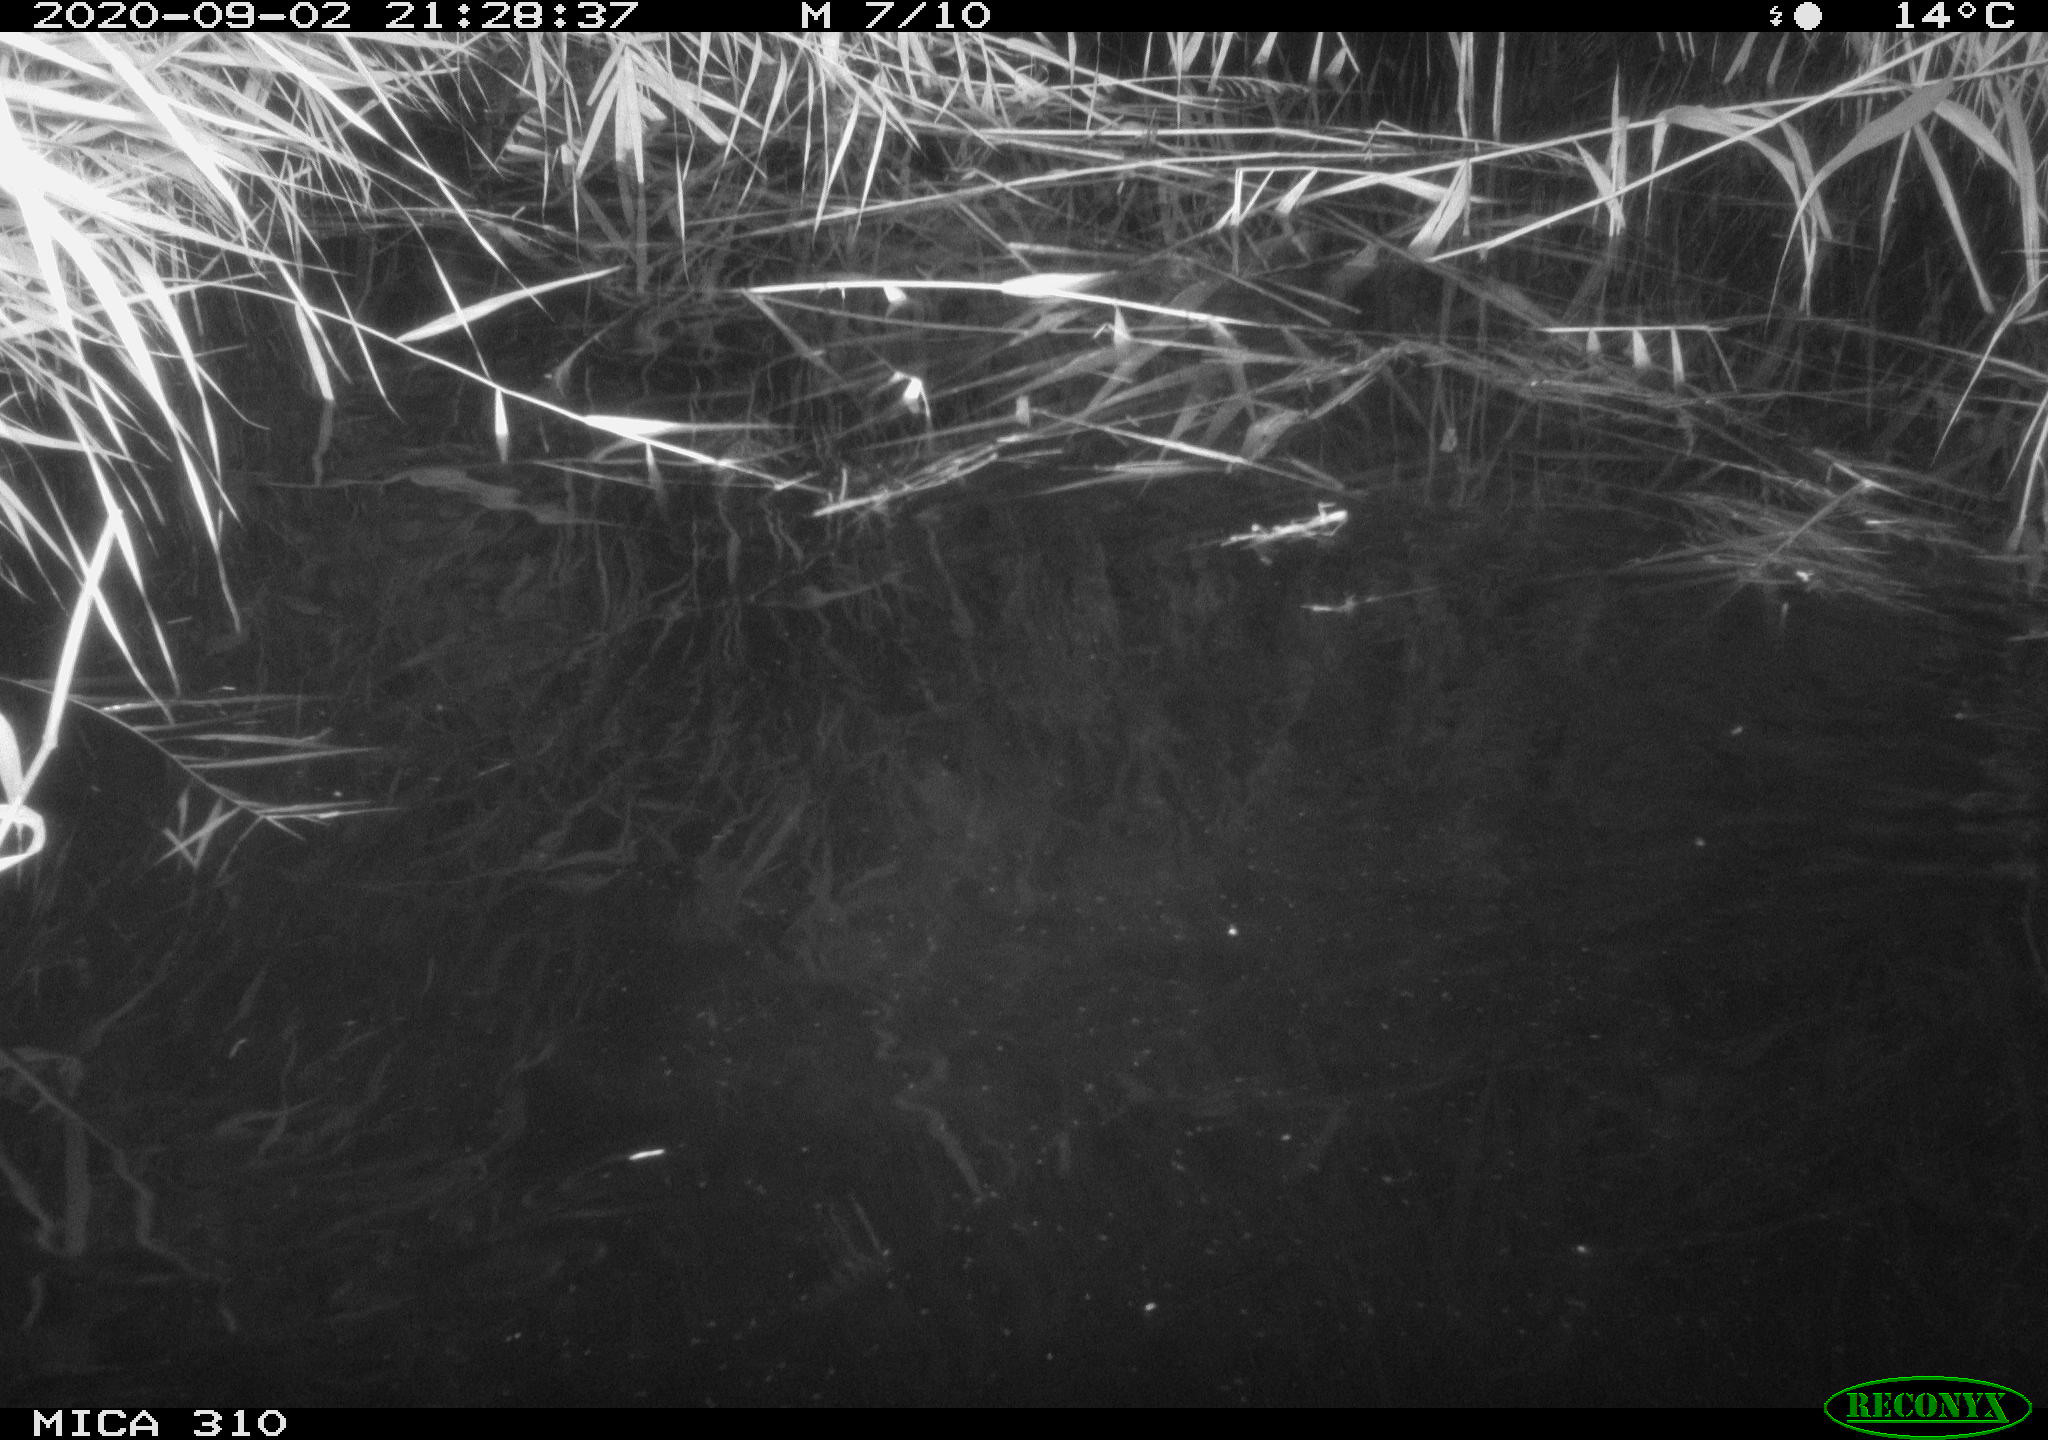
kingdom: Animalia
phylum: Chordata
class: Mammalia
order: Rodentia
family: Muridae
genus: Rattus
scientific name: Rattus norvegicus
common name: Brown rat
